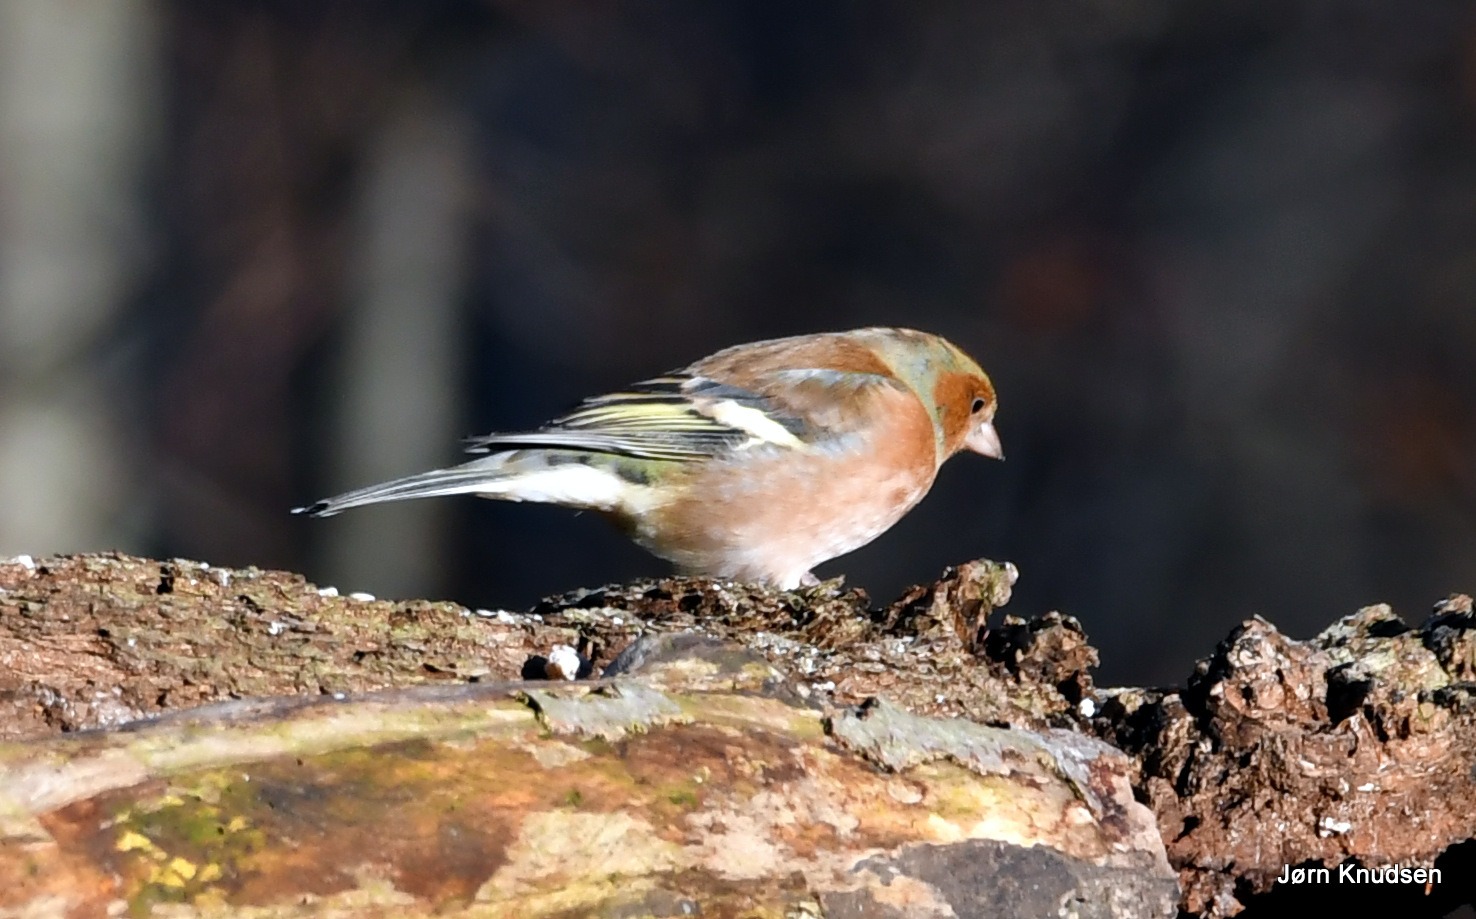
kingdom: Animalia
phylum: Chordata
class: Aves
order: Passeriformes
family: Fringillidae
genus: Fringilla
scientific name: Fringilla coelebs
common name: Bogfinke
